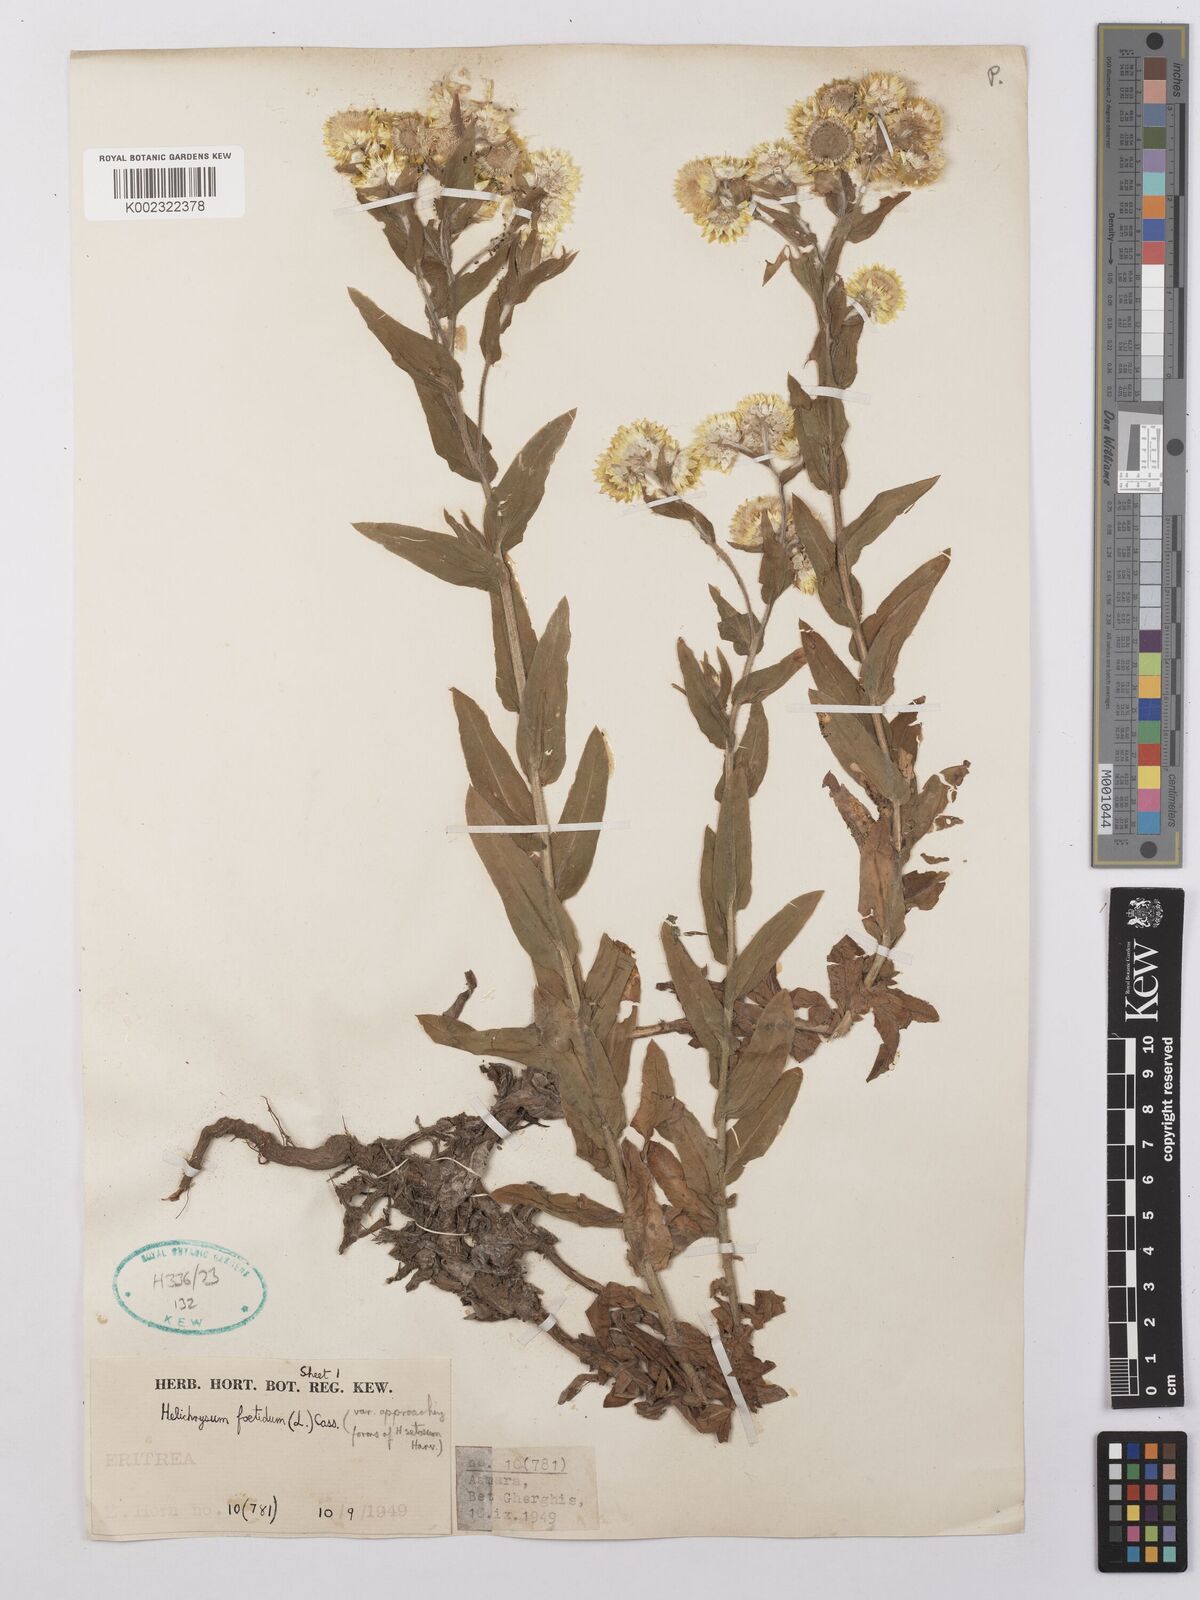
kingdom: Plantae
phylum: Tracheophyta
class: Magnoliopsida
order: Asterales
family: Asteraceae
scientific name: Asteraceae
